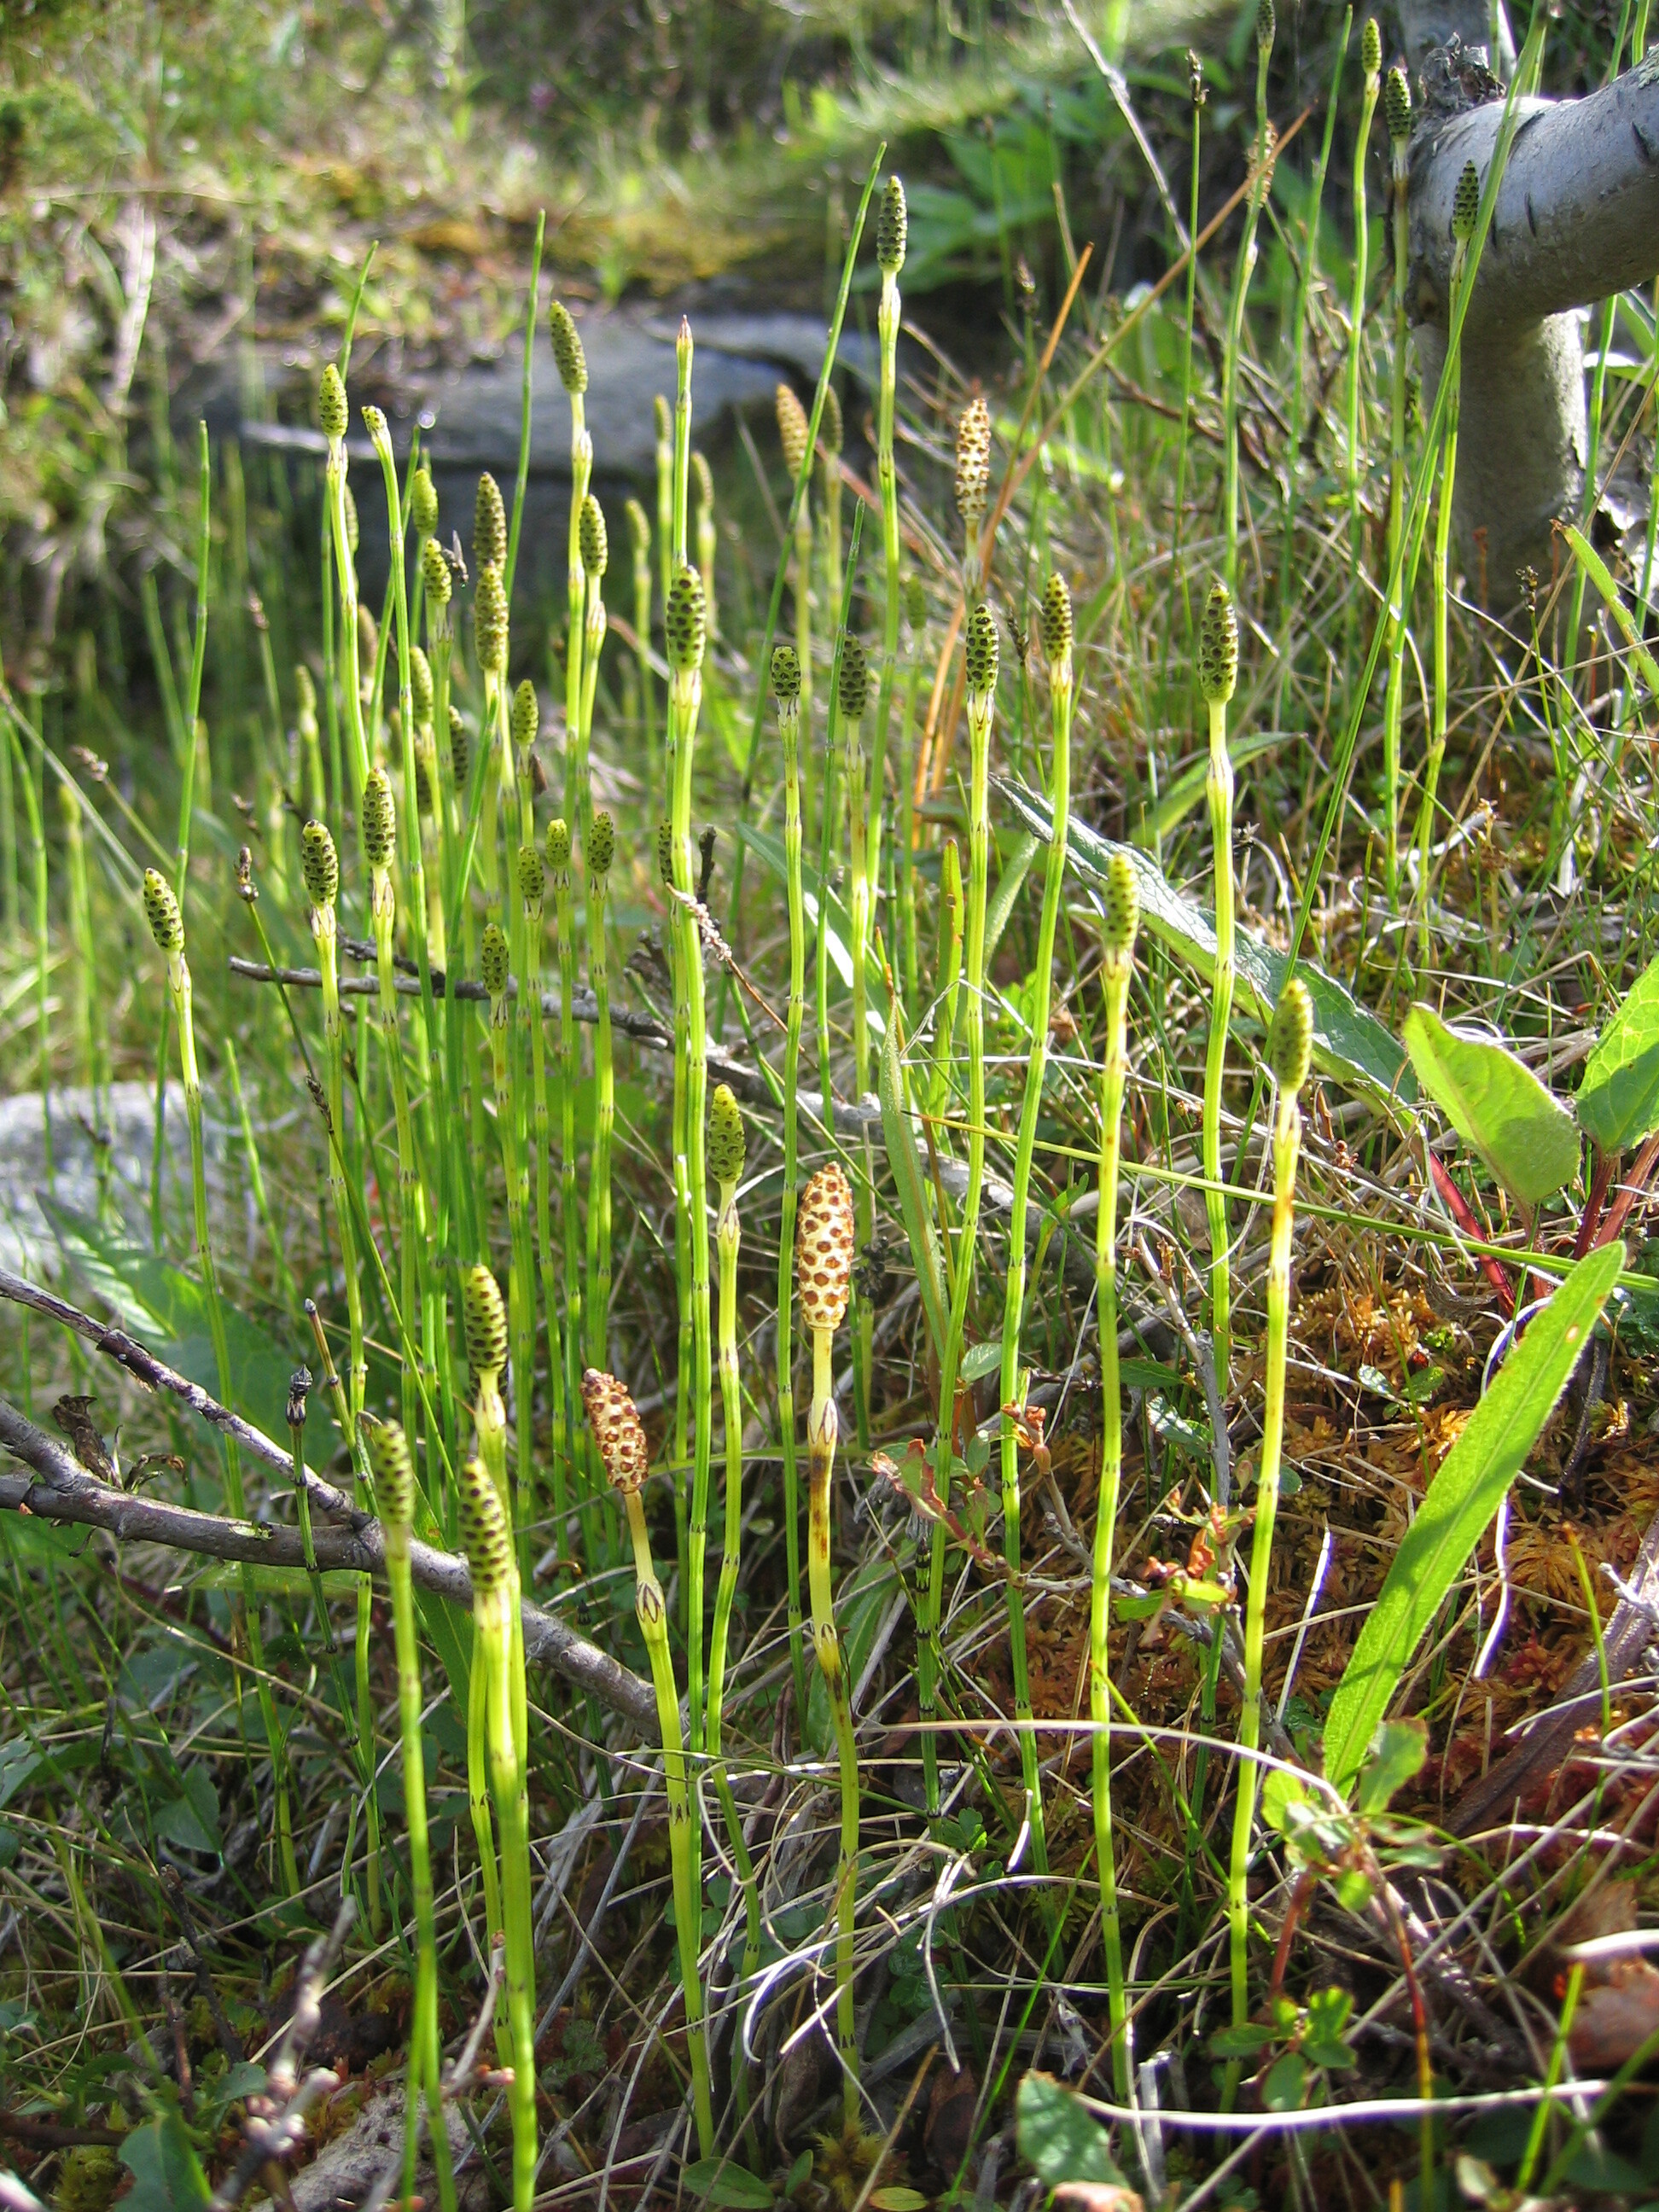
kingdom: Plantae
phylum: Tracheophyta
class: Polypodiopsida
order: Equisetales
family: Equisetaceae
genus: Equisetum
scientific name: Equisetum palustre
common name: Marsh horsetail
